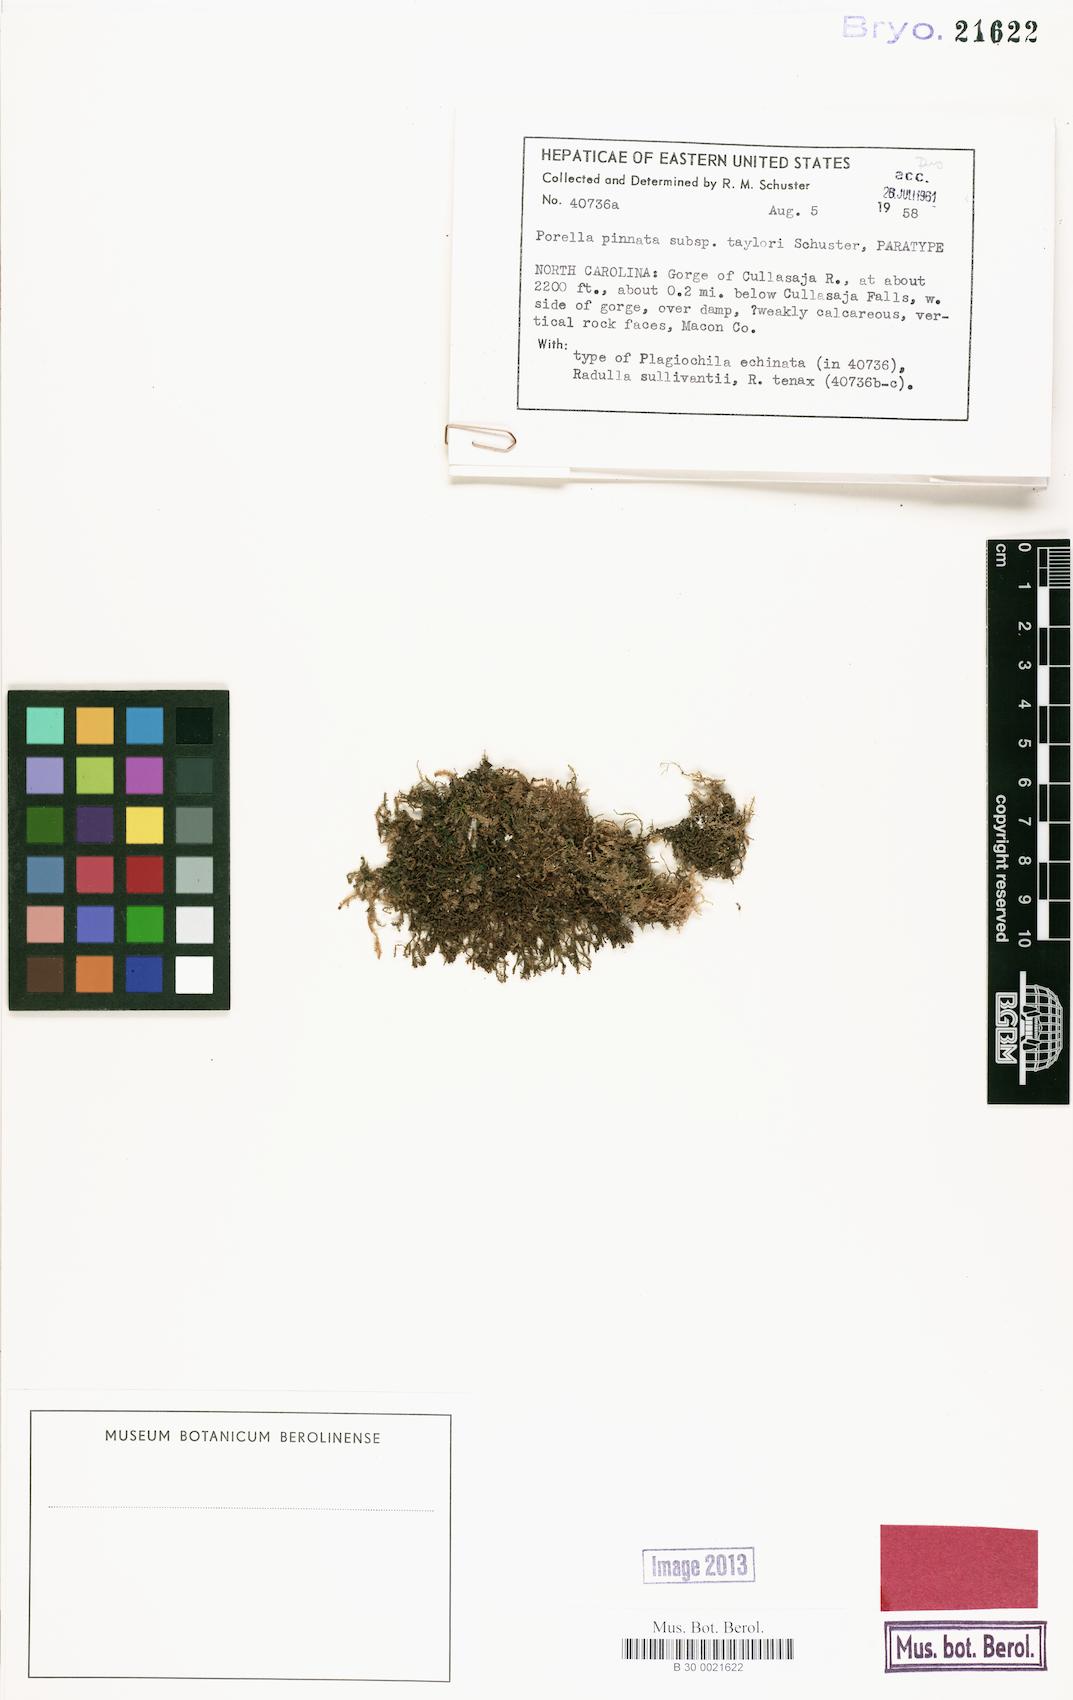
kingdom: Plantae
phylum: Marchantiophyta
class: Jungermanniopsida
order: Porellales
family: Porellaceae
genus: Porella
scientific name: Porella pinnata
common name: Pinnate scalewort
